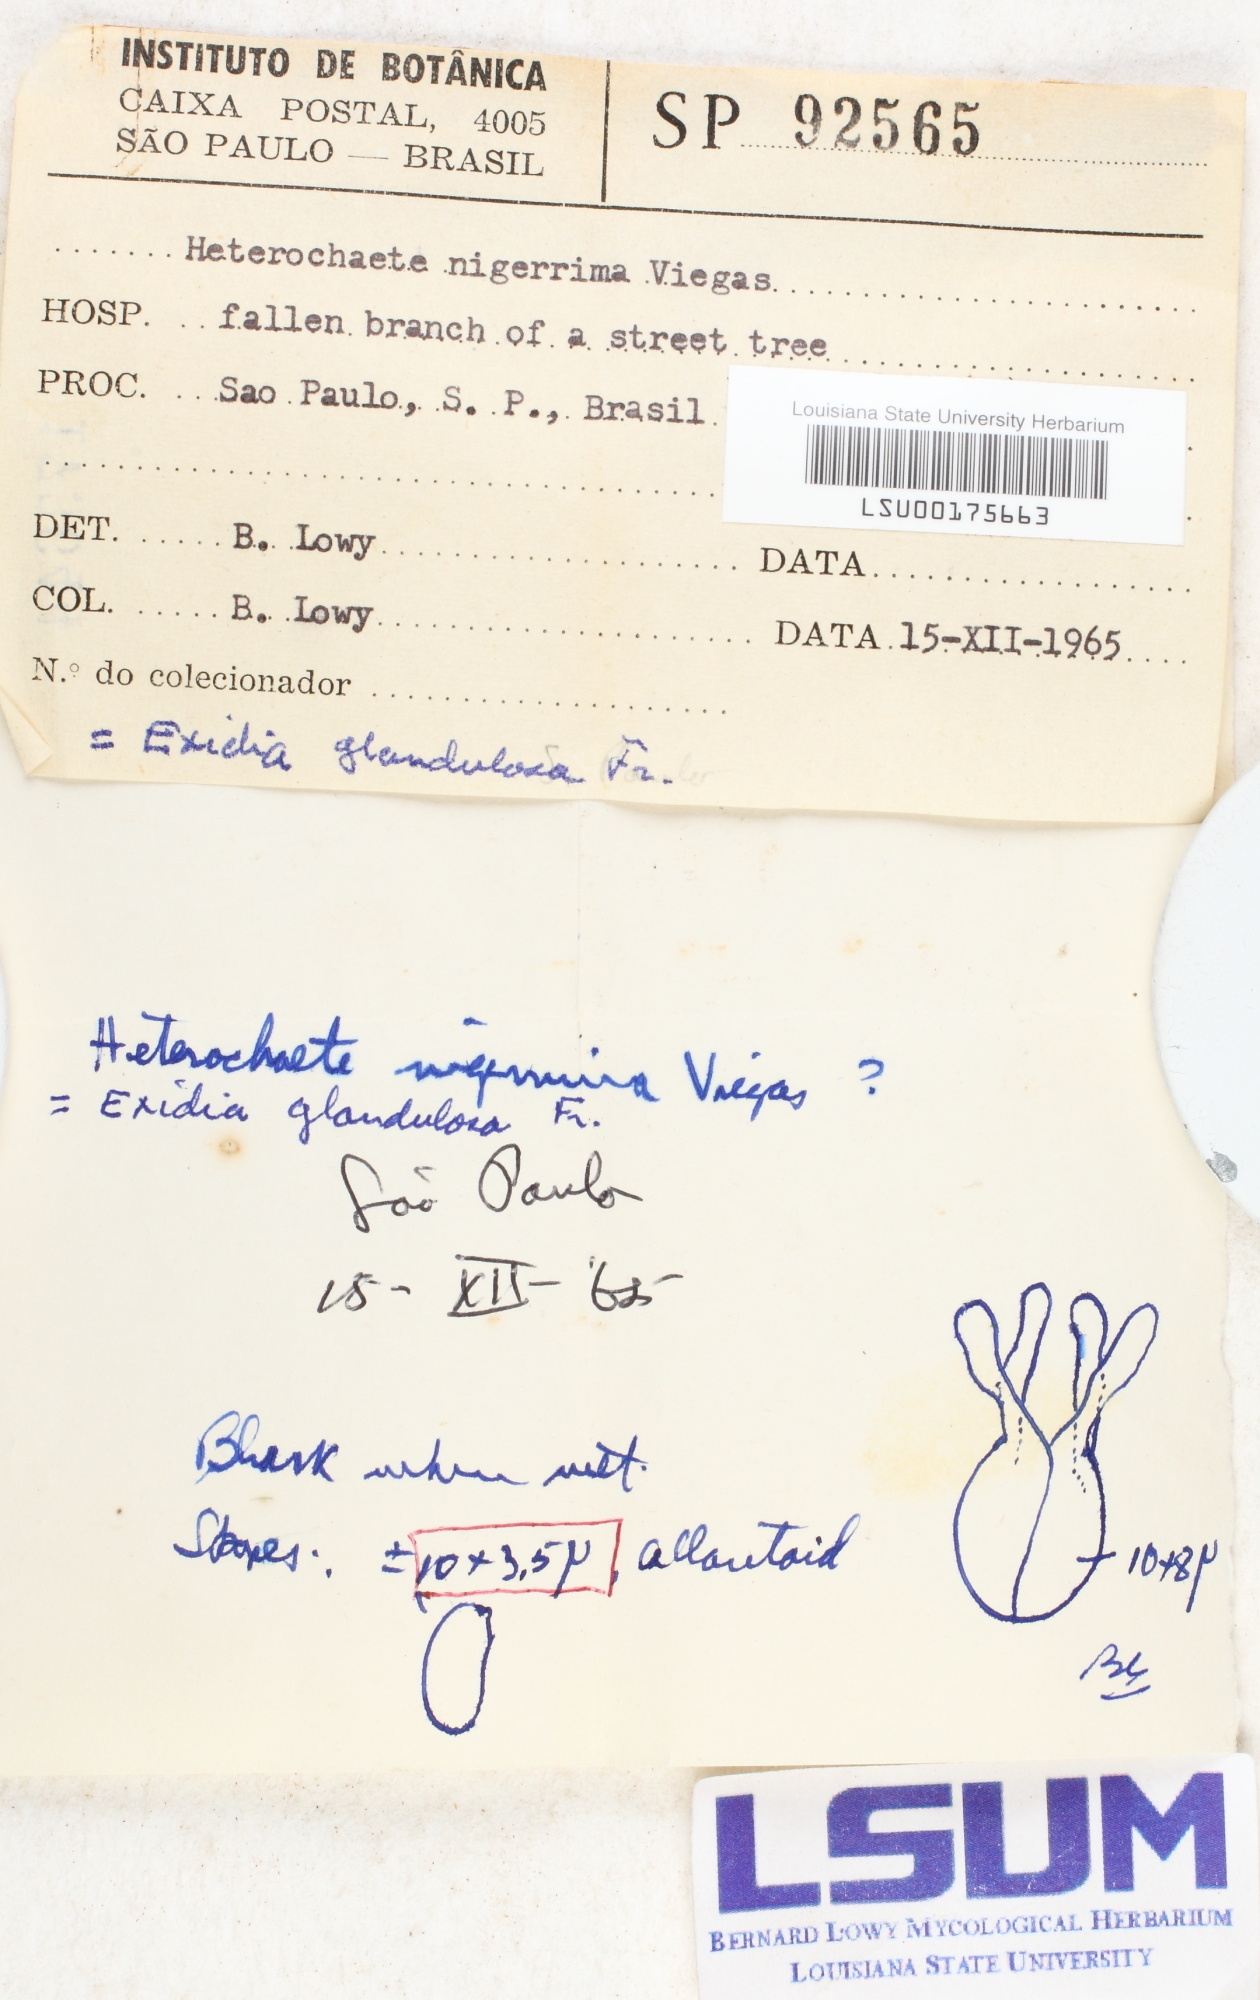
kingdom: Fungi
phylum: Basidiomycota
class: Agaricomycetes
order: Auriculariales
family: Auriculariaceae
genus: Tremellochaete
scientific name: Tremellochaete nigerrima
